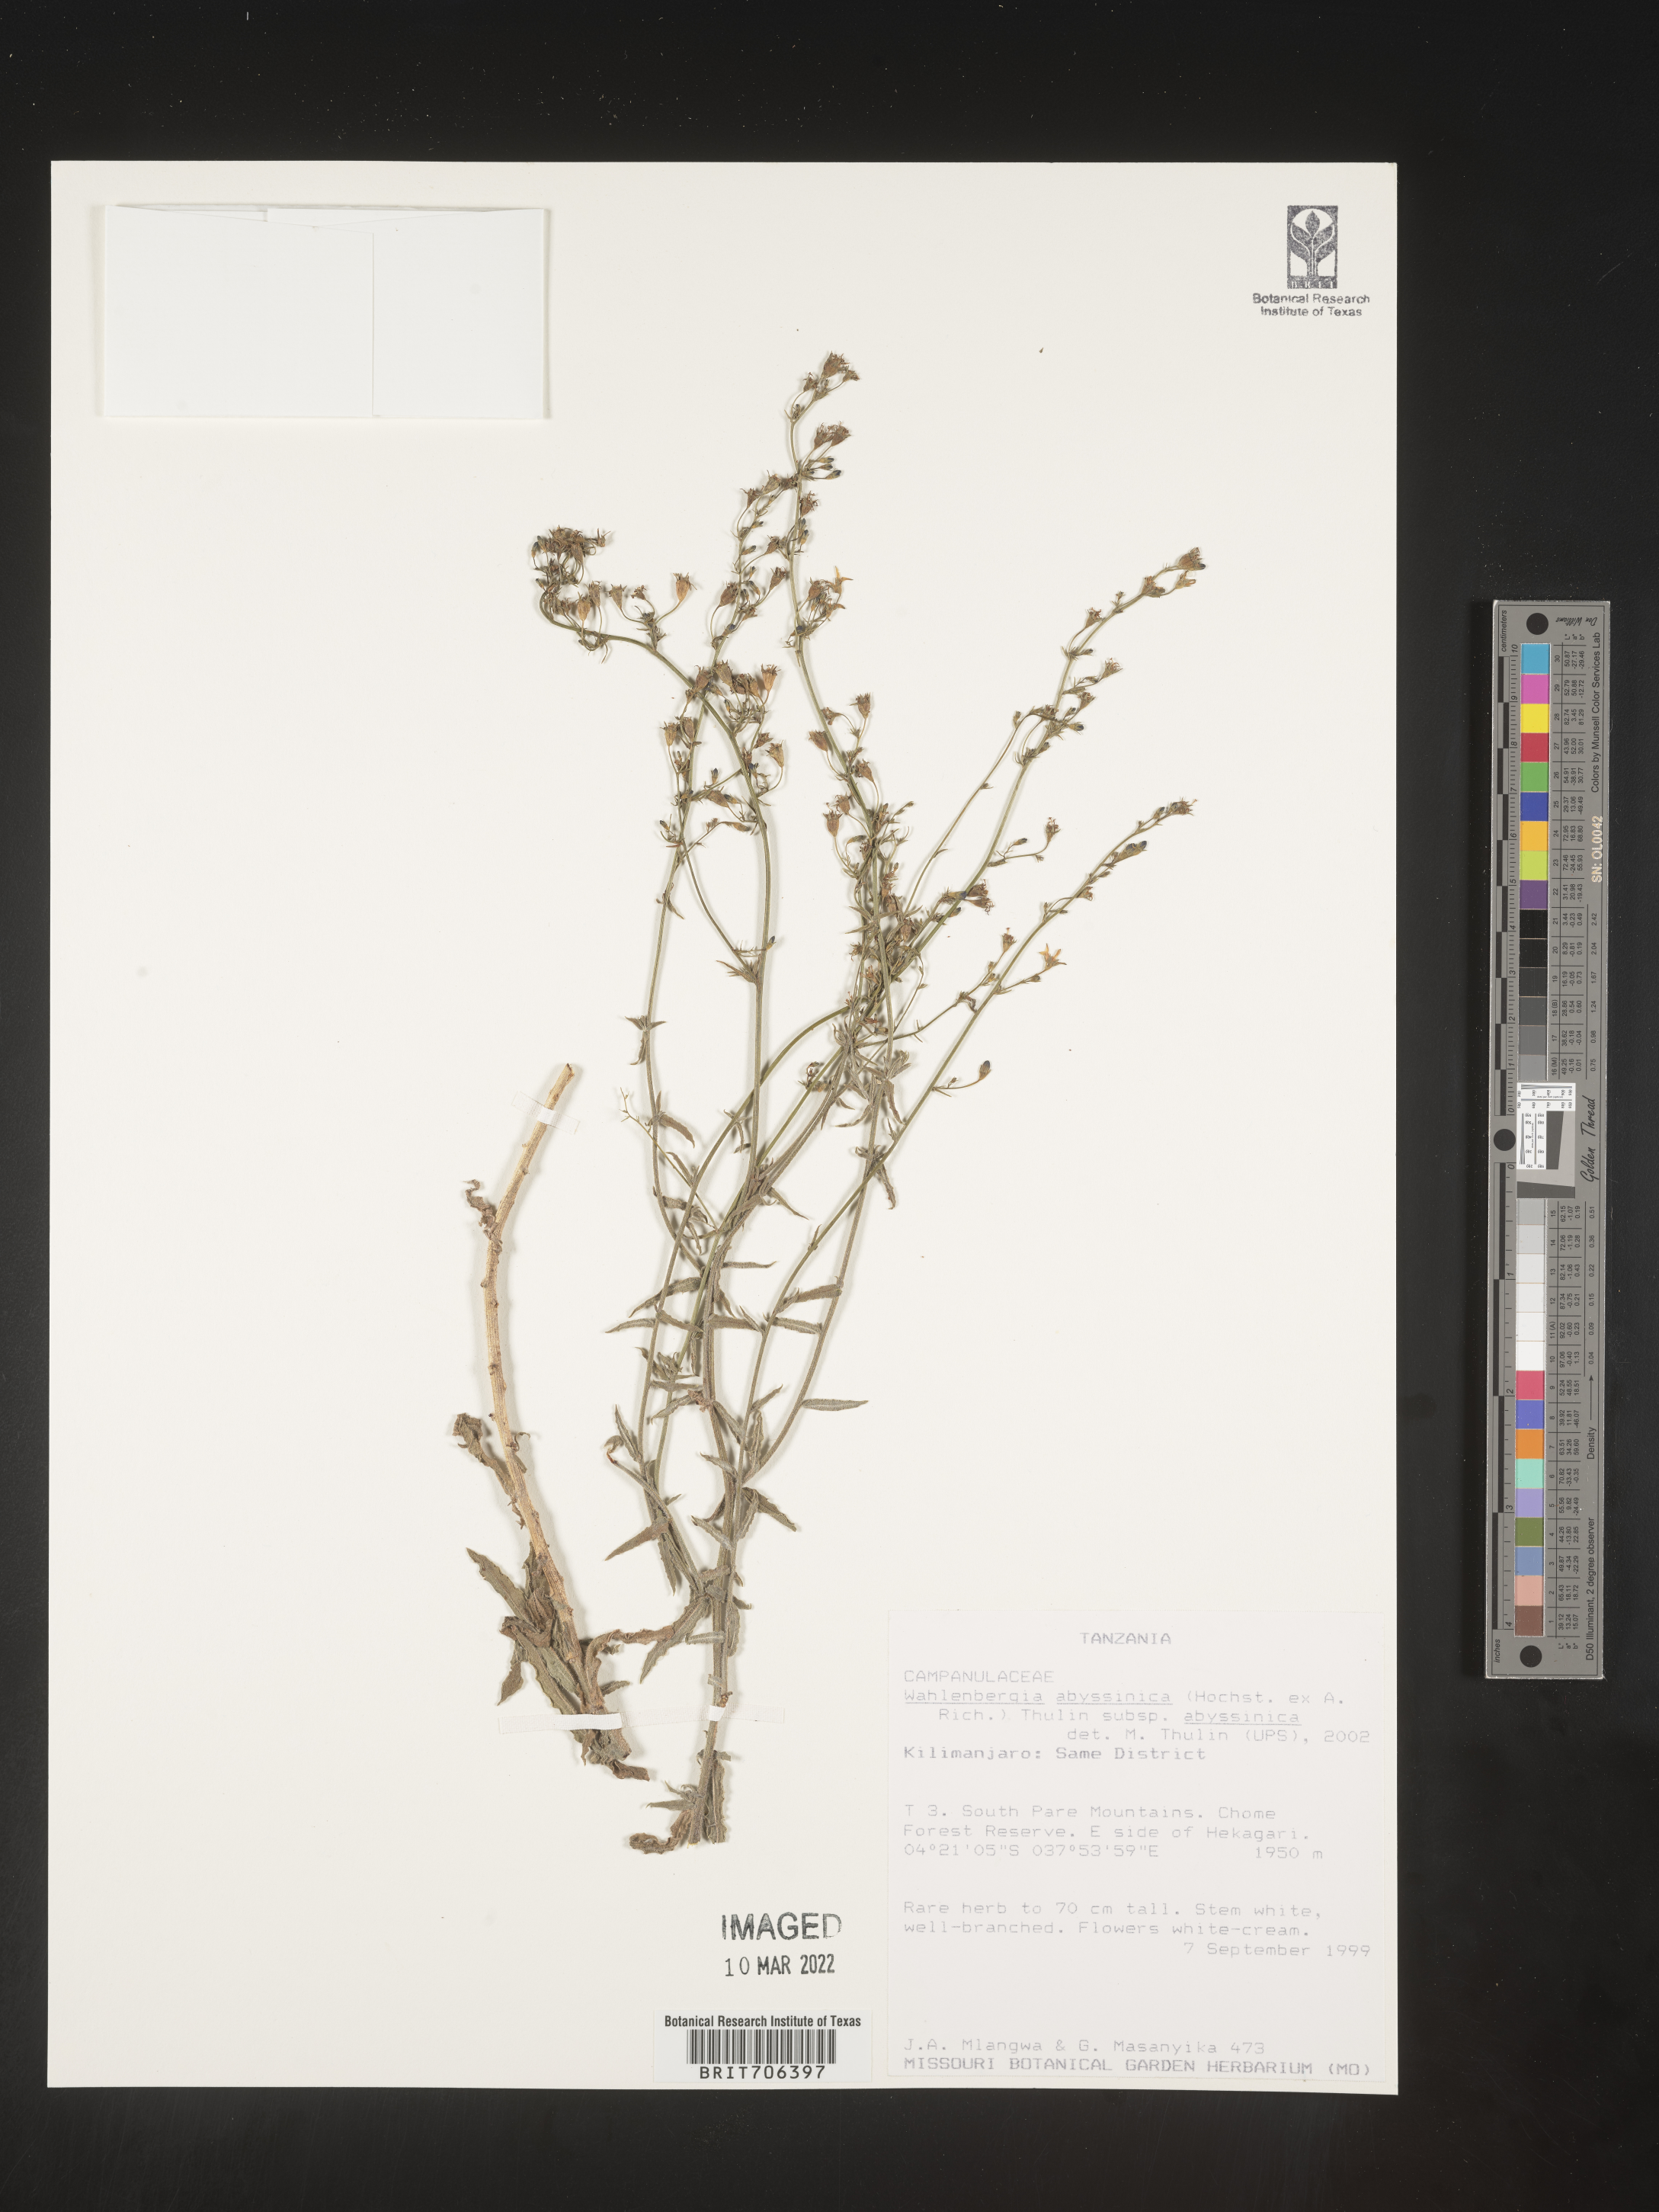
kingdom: Plantae
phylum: Tracheophyta
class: Magnoliopsida
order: Asterales
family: Campanulaceae
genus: Wahlenbergia
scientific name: Wahlenbergia
